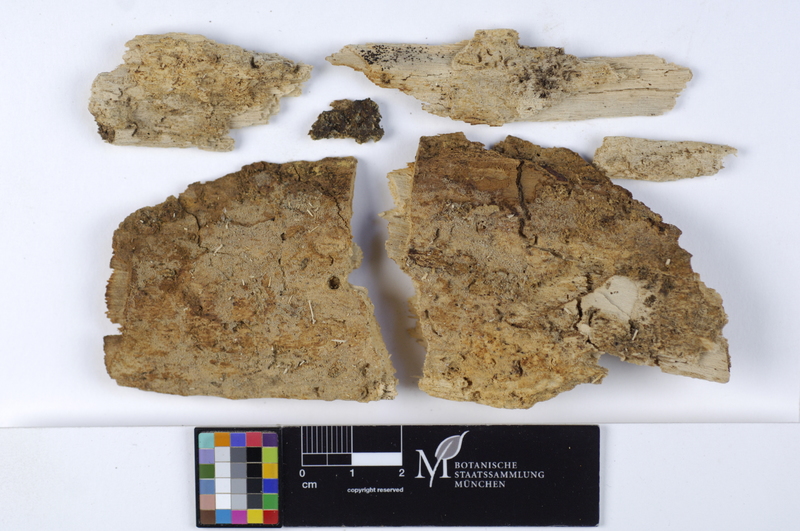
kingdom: Fungi
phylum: Basidiomycota
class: Agaricomycetes
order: Cantharellales
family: Botryobasidiaceae
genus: Botryobasidium
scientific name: Botryobasidium candicans
